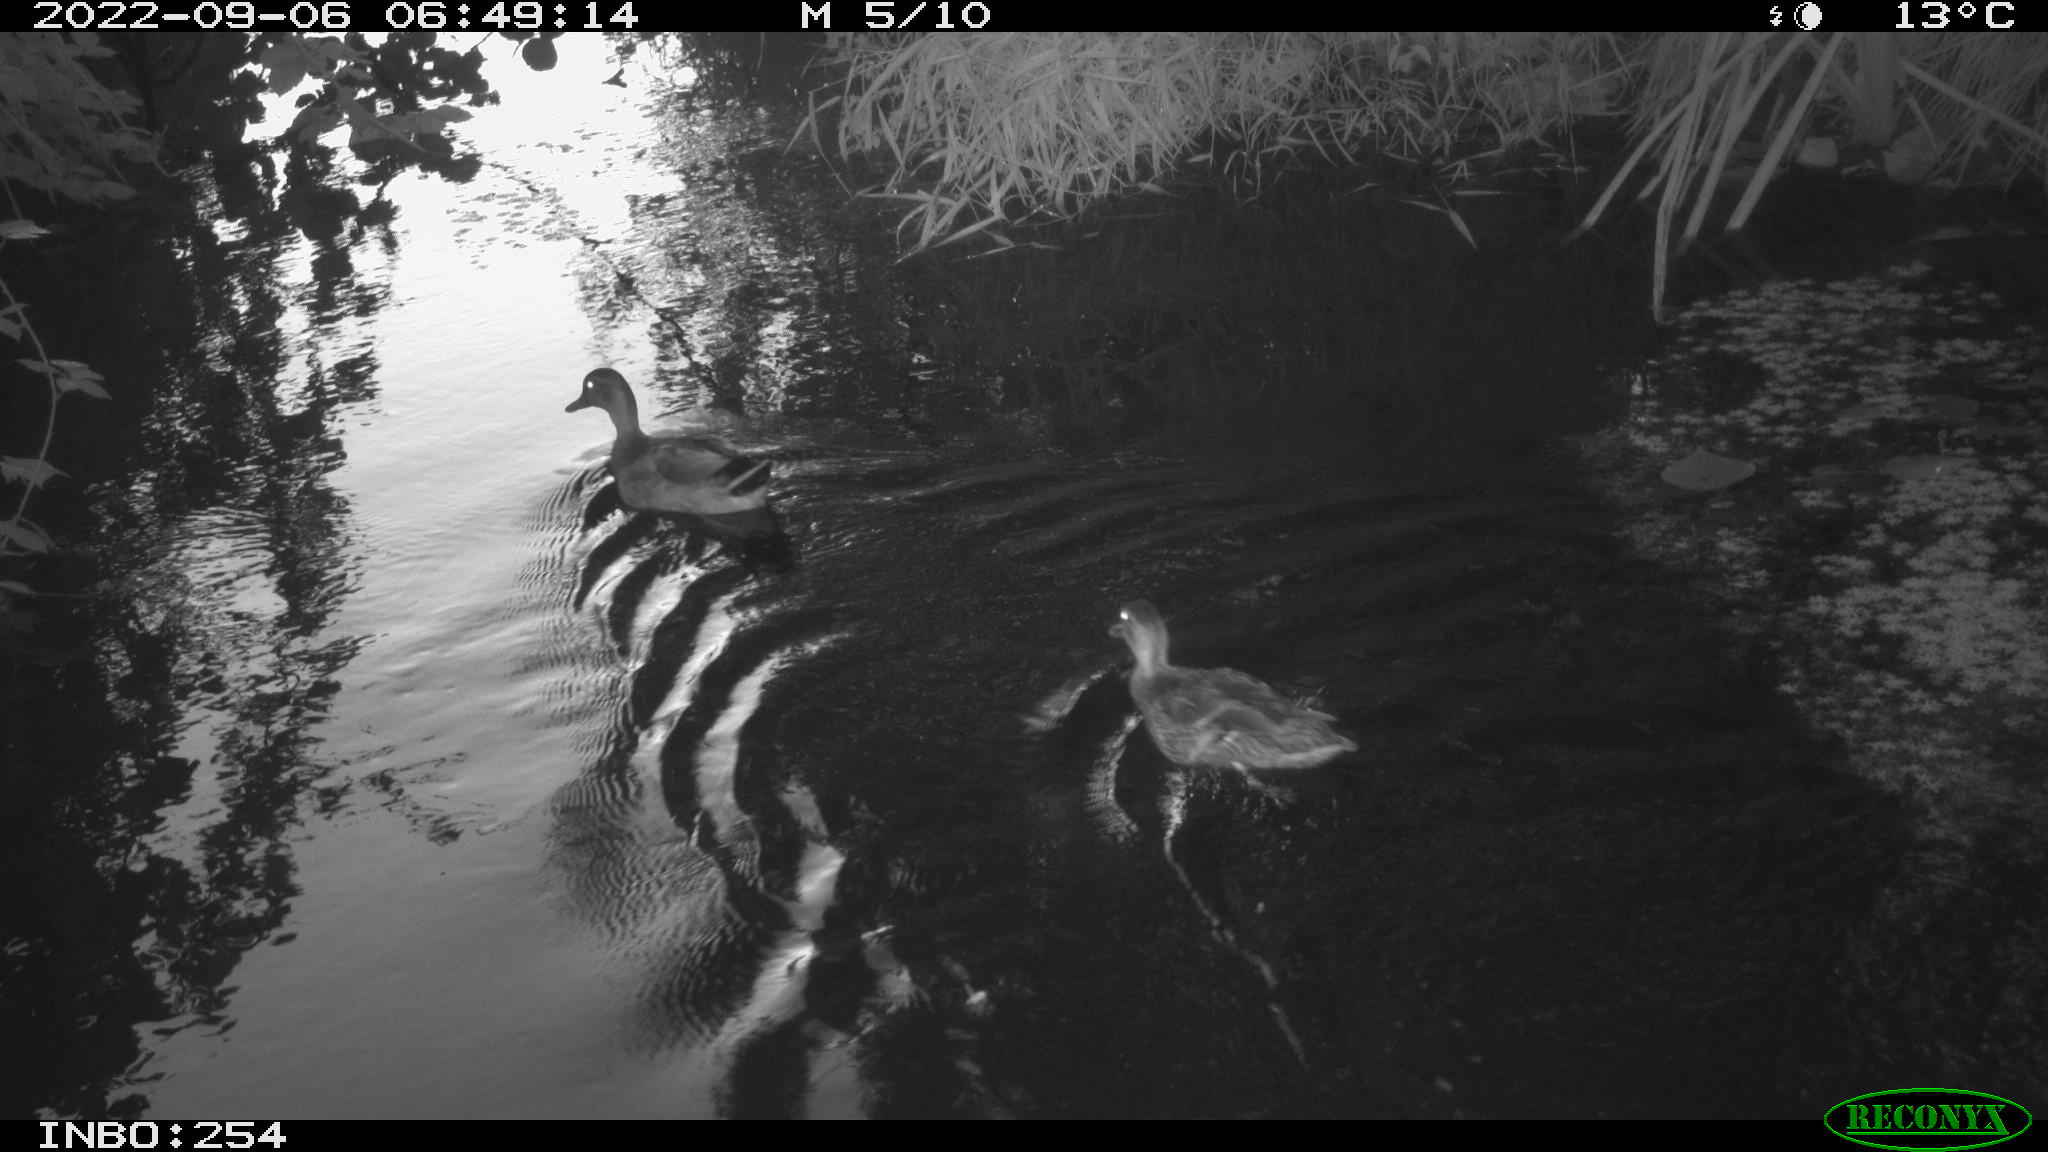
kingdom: Animalia
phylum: Chordata
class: Aves
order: Anseriformes
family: Anatidae
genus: Anas
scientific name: Anas platyrhynchos
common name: Mallard
